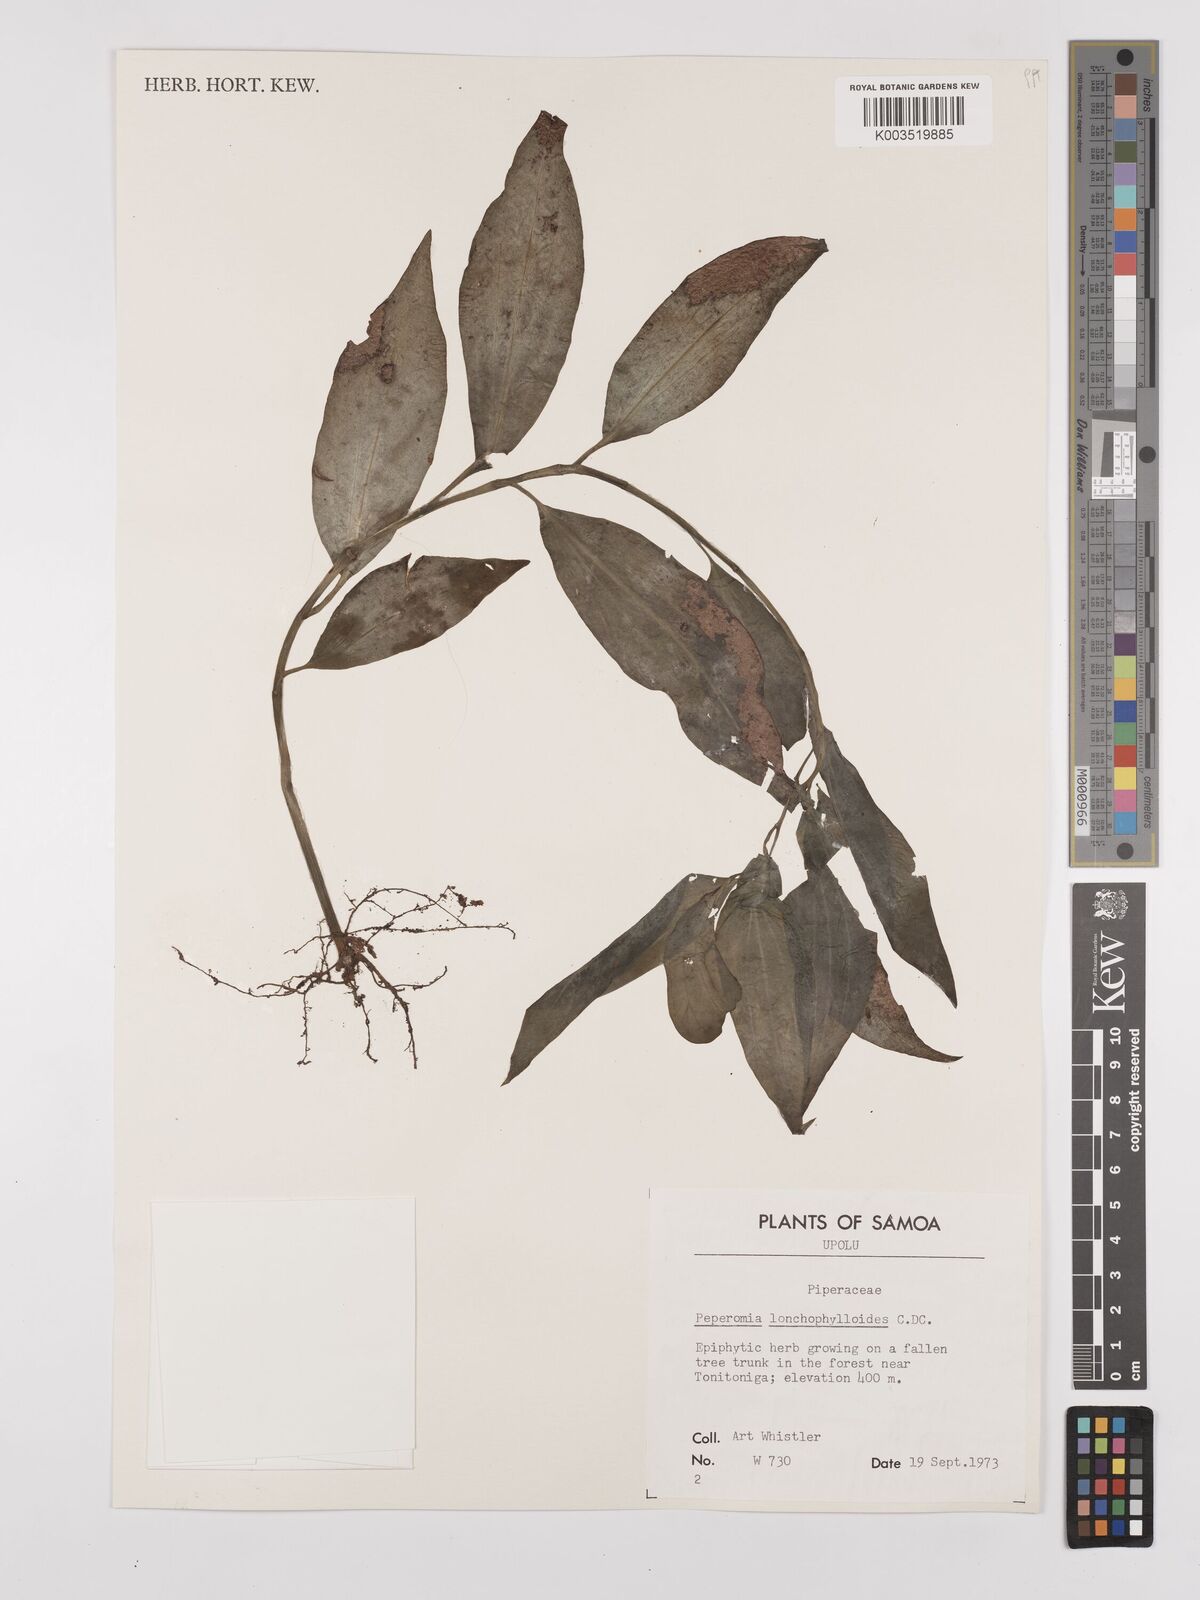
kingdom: Plantae
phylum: Tracheophyta
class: Magnoliopsida
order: Piperales
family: Piperaceae
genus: Peperomia
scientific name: Peperomia oahuensis
